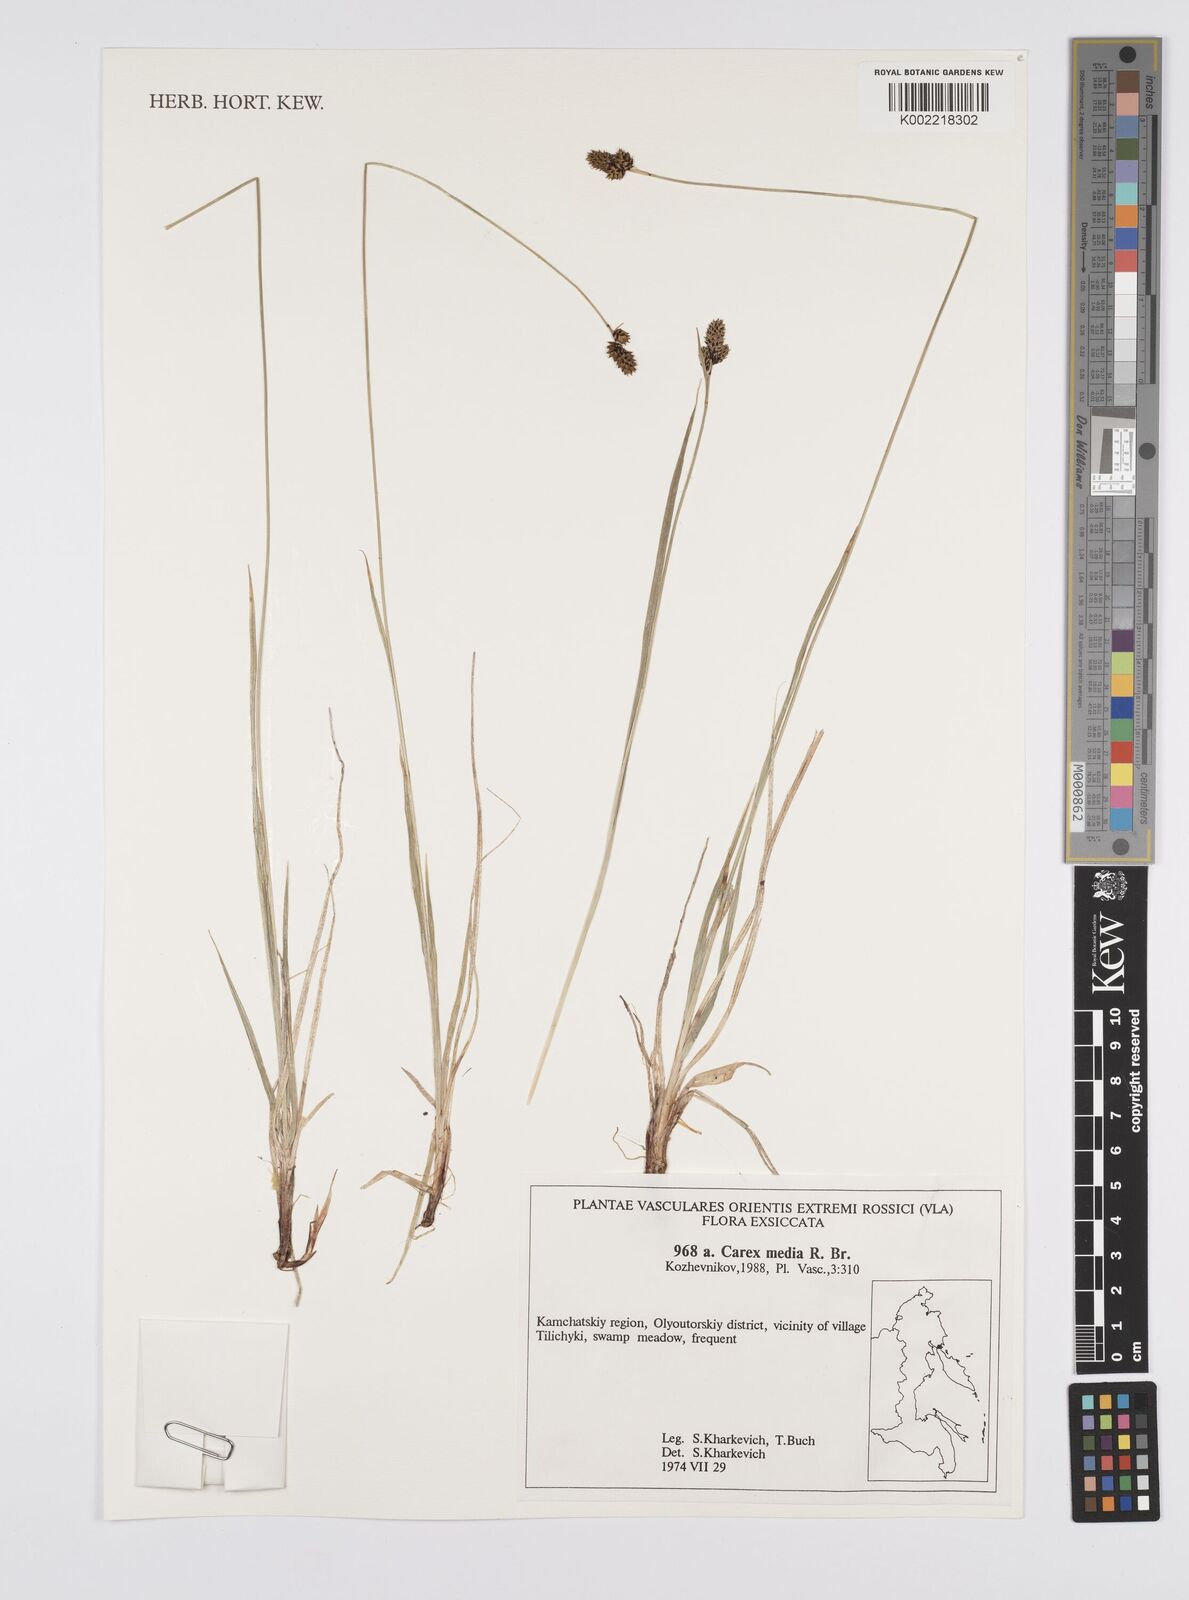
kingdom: Plantae
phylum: Tracheophyta
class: Liliopsida
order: Poales
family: Cyperaceae
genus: Carex
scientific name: Carex nigra
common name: Common sedge
